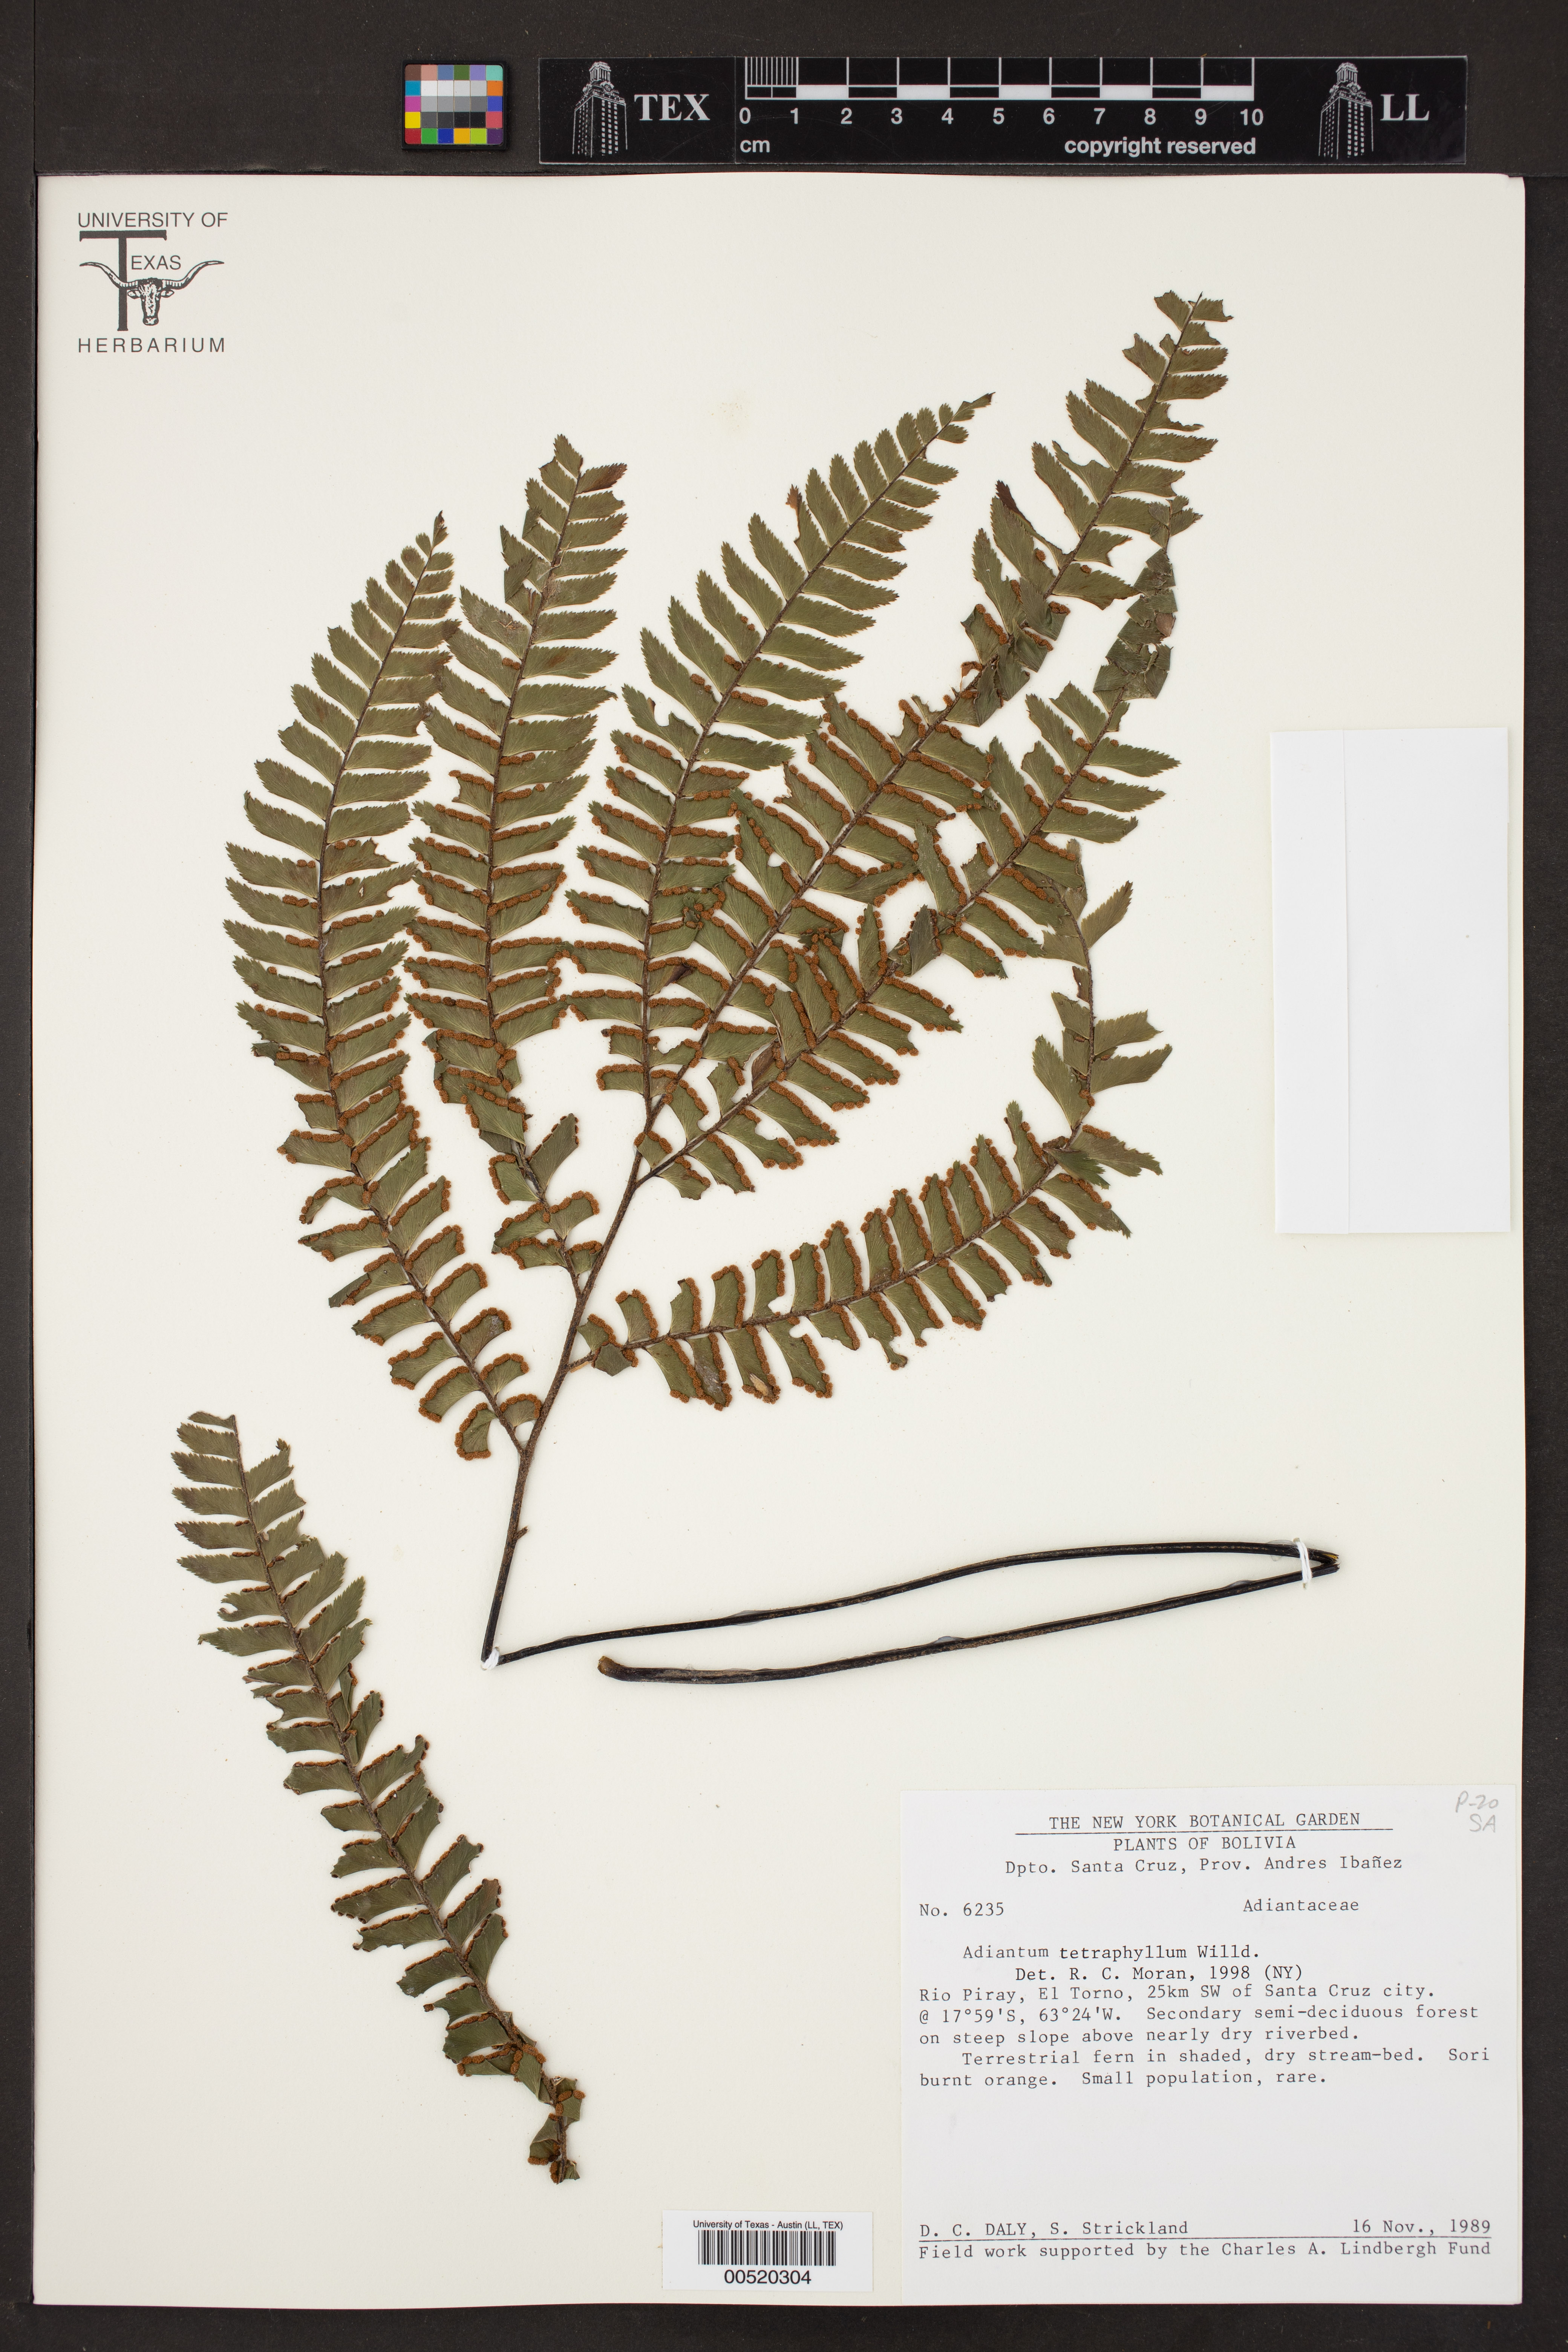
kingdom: Plantae
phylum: Tracheophyta
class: Polypodiopsida
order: Polypodiales
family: Pteridaceae
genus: Adiantum
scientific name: Adiantum tetraphyllum
